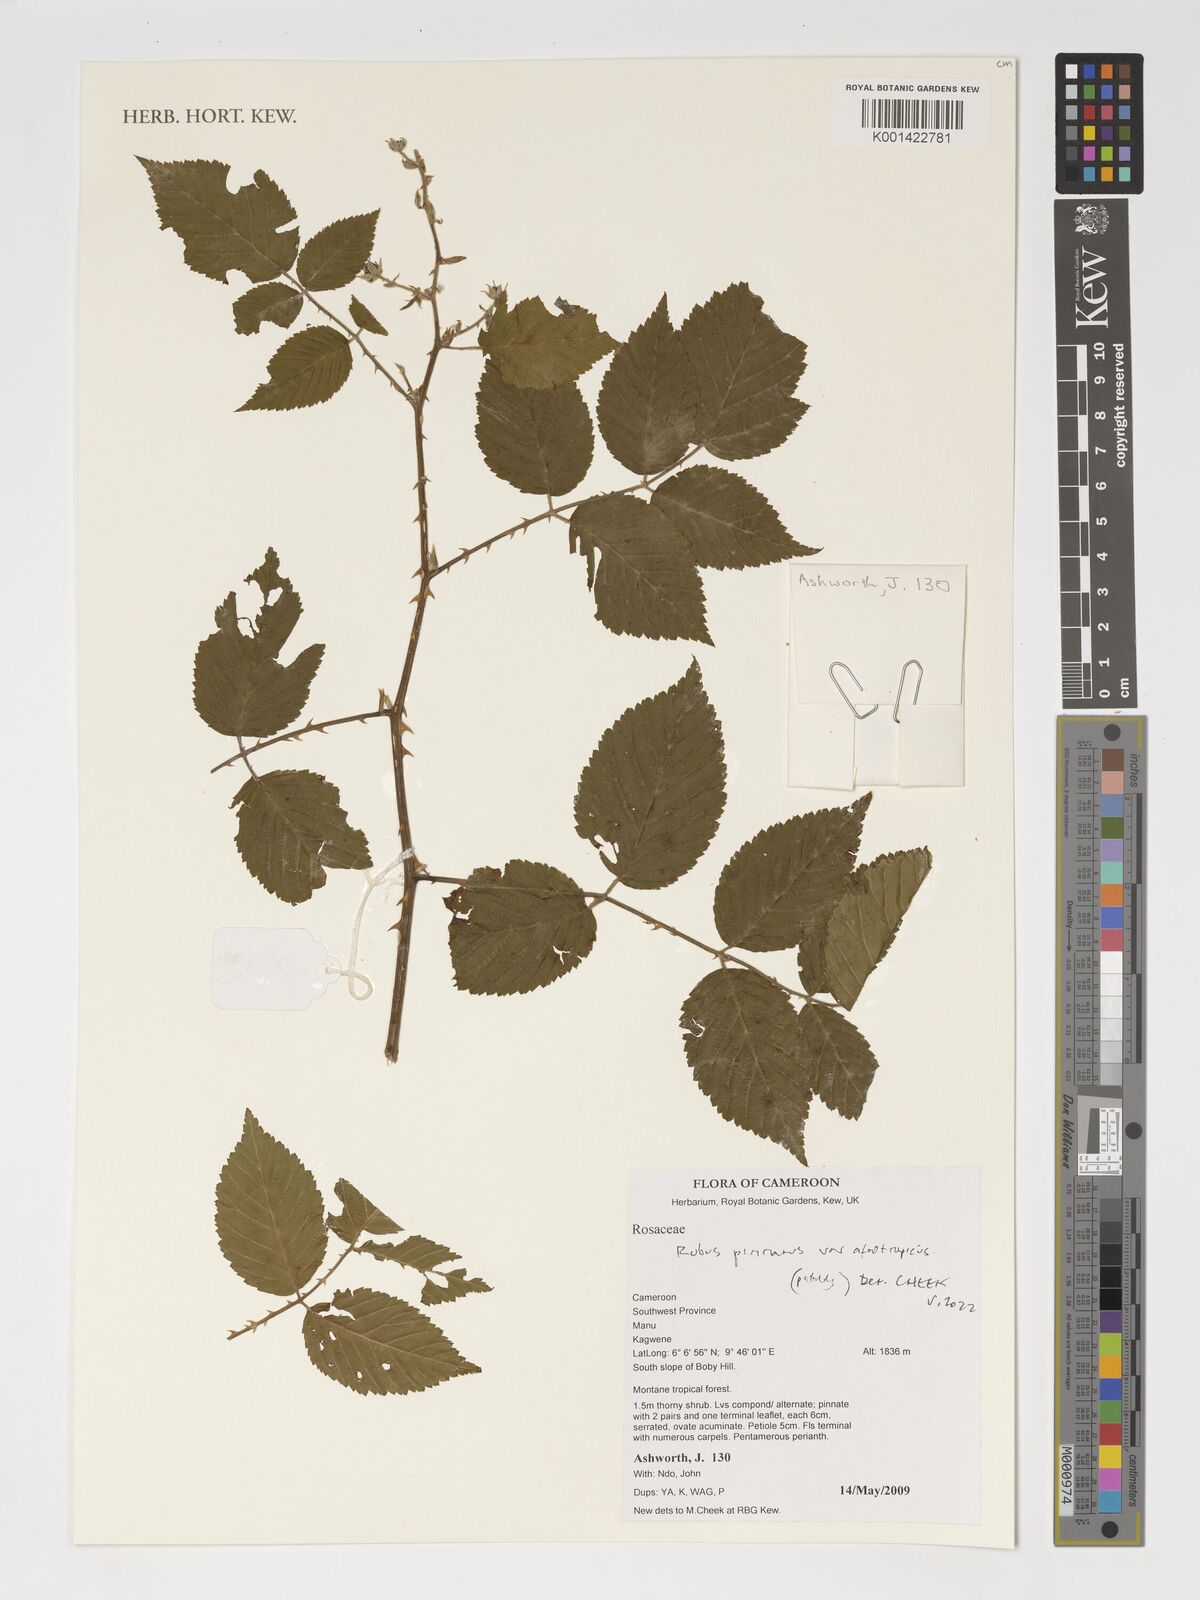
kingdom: Plantae
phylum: Tracheophyta
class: Magnoliopsida
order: Rosales
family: Rosaceae
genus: Rubus
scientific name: Rubus pinnatus
